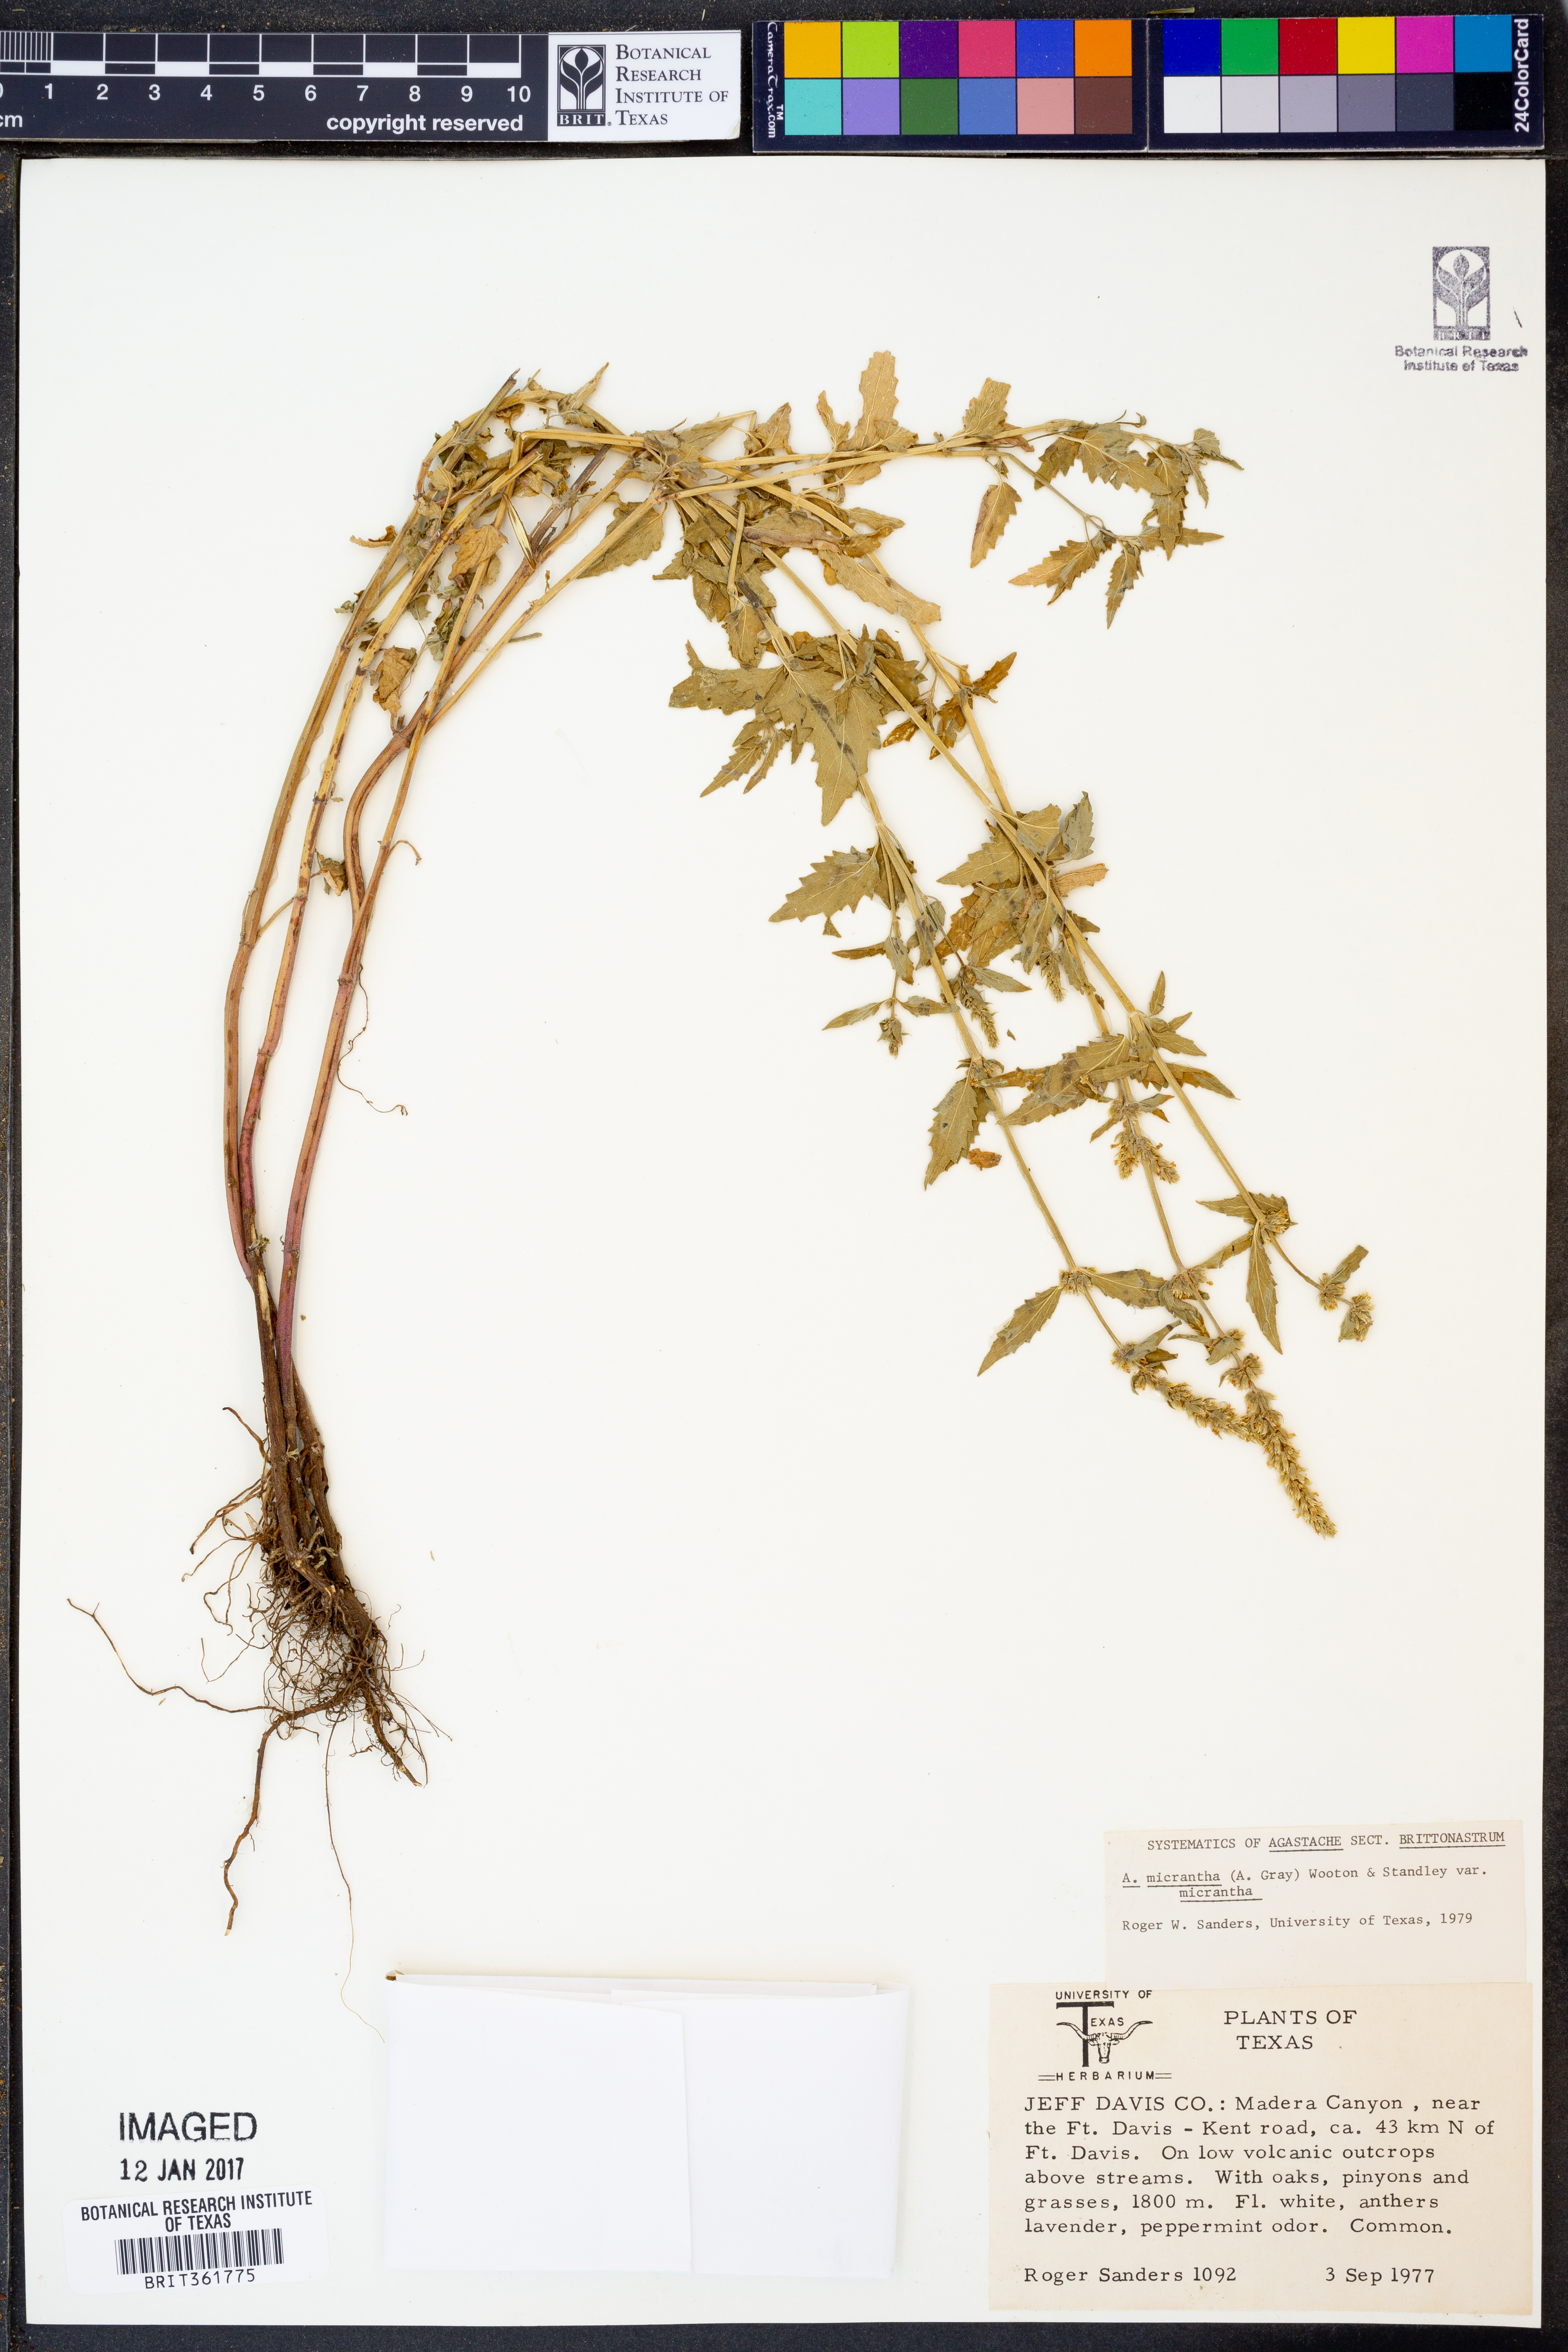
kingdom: Plantae
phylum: Tracheophyta
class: Magnoliopsida
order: Lamiales
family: Lamiaceae
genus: Agastache
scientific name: Agastache micrantha
